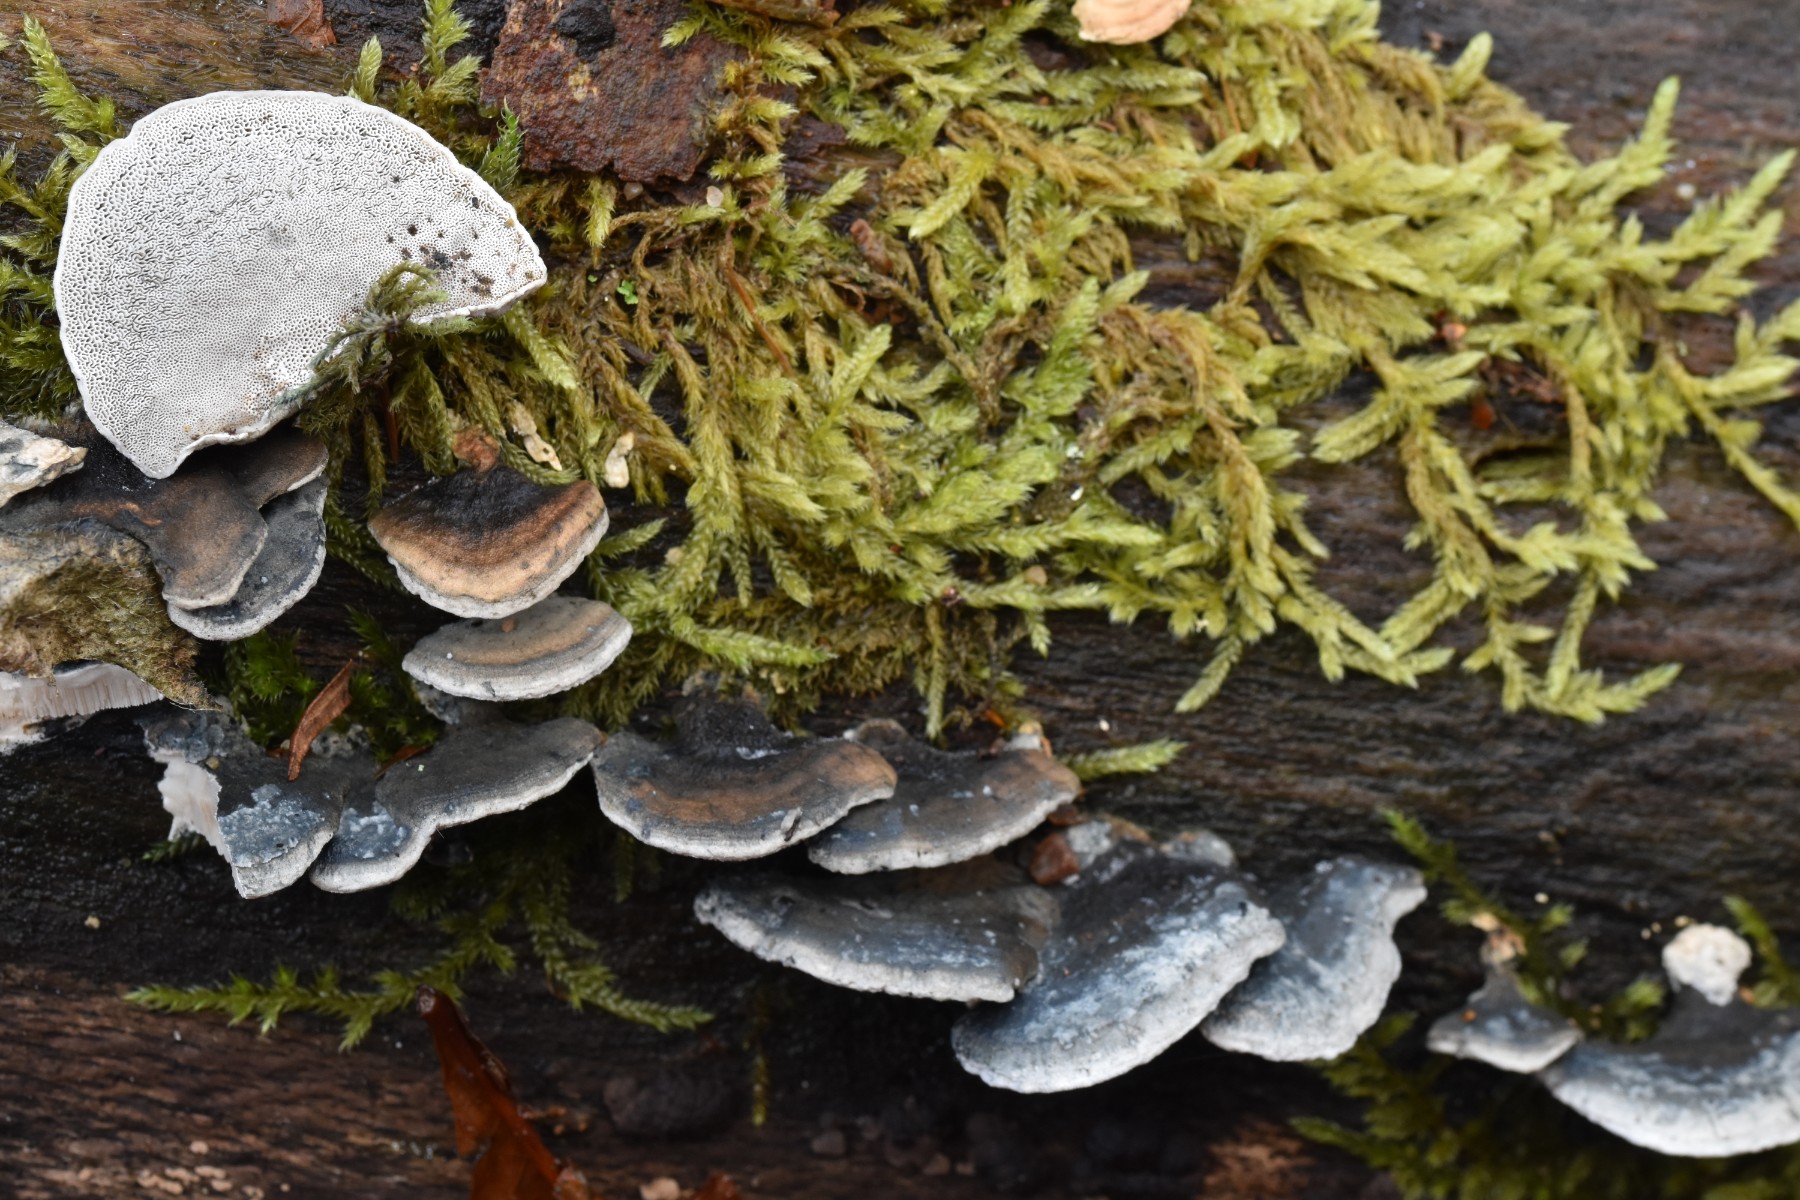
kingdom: Fungi
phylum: Basidiomycota
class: Agaricomycetes
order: Polyporales
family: Polyporaceae
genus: Cyanosporus
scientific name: Cyanosporus alni
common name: blegblå kødporesvamp
